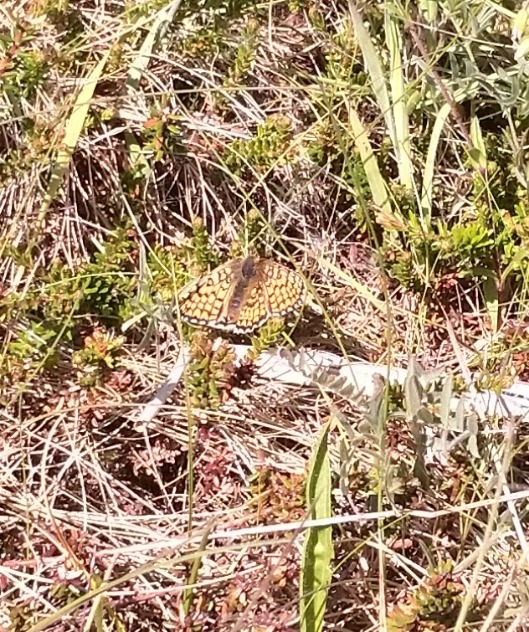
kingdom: Animalia
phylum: Arthropoda
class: Insecta
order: Lepidoptera
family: Nymphalidae
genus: Melitaea
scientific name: Melitaea cinxia
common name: Okkergul pletvinge
